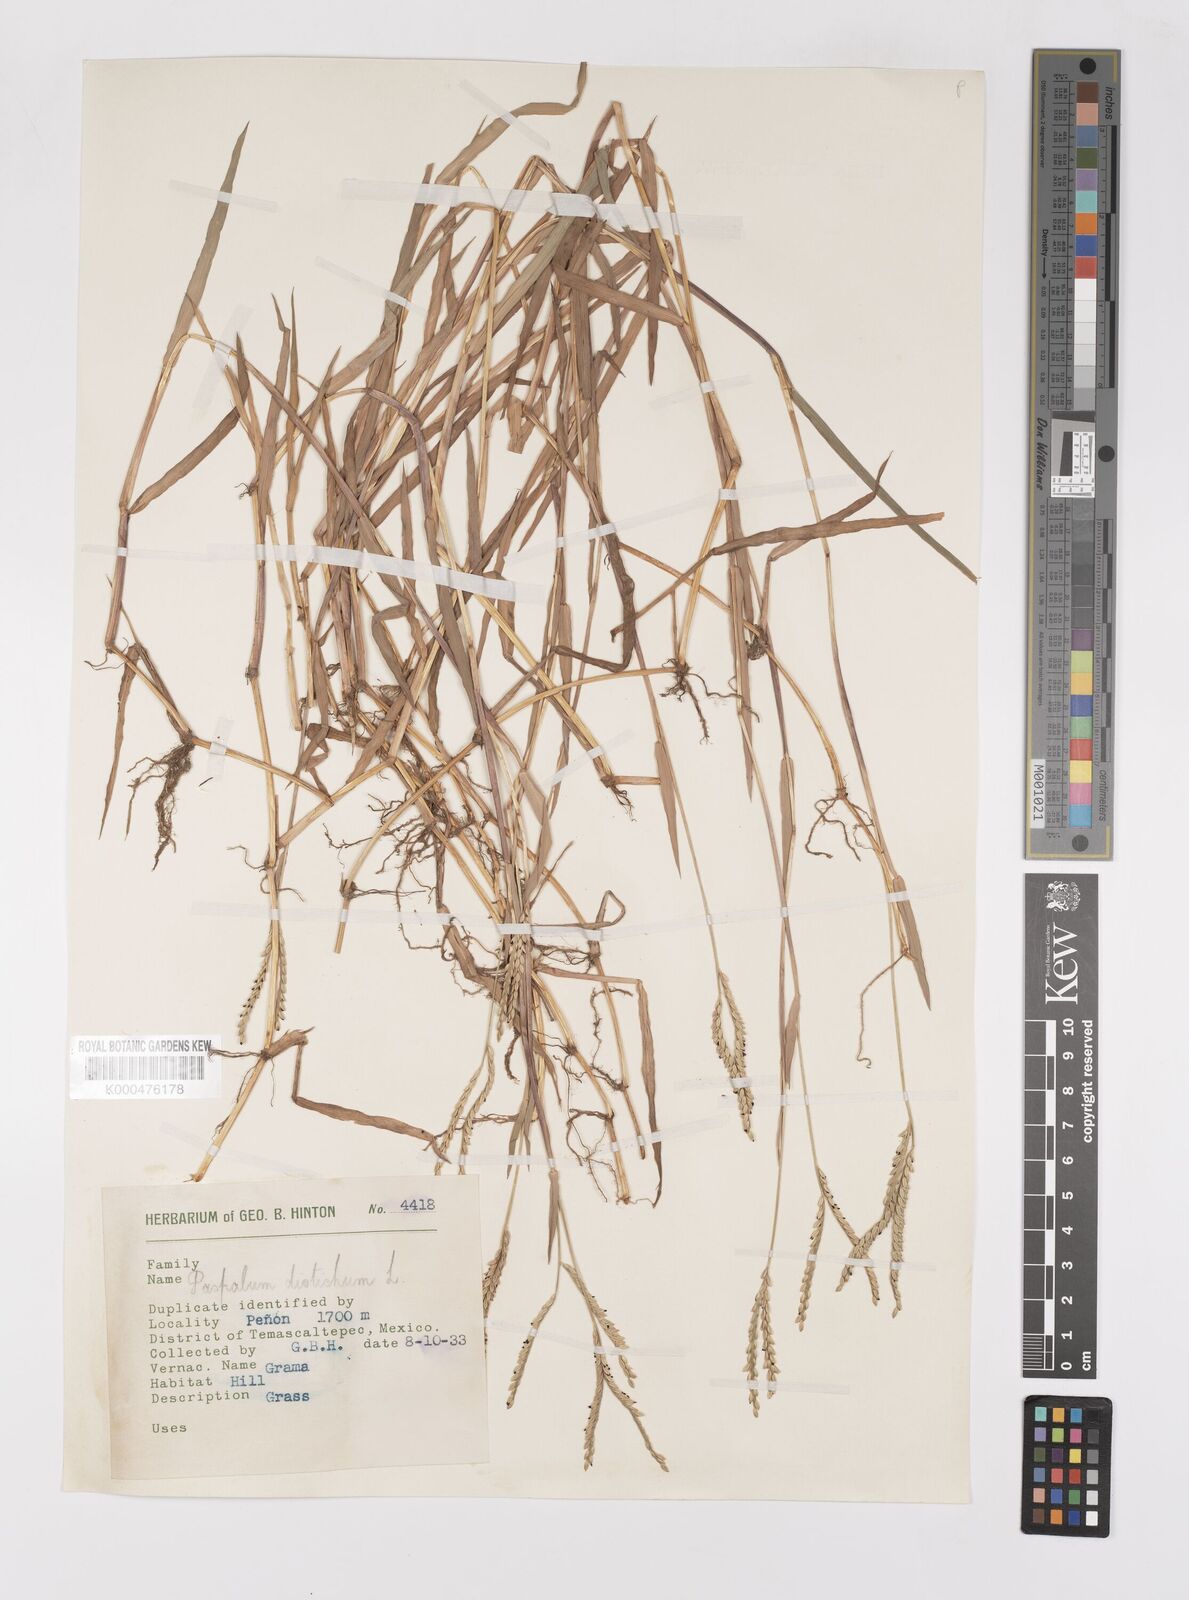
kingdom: Plantae
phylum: Tracheophyta
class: Liliopsida
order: Poales
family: Poaceae
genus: Paspalum
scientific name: Paspalum distichum
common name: Knotgrass
